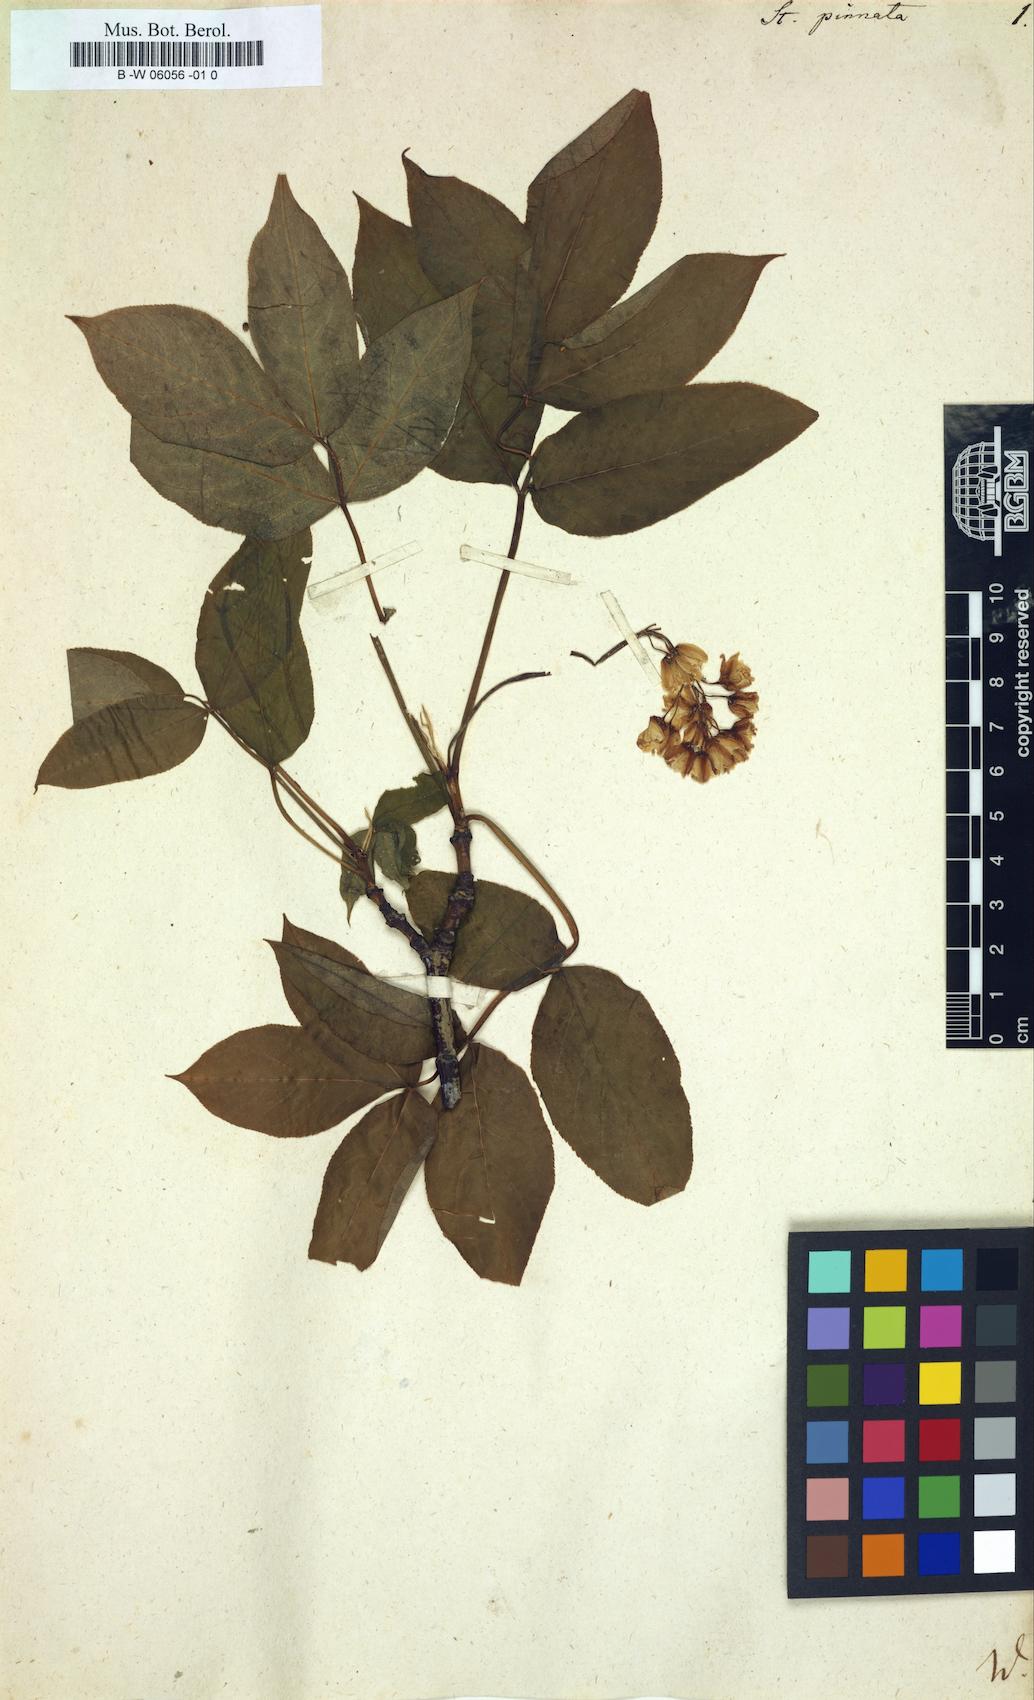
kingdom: Plantae
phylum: Tracheophyta
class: Magnoliopsida
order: Crossosomatales
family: Staphyleaceae
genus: Staphylea
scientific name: Staphylea pinnata
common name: Bladdernut
